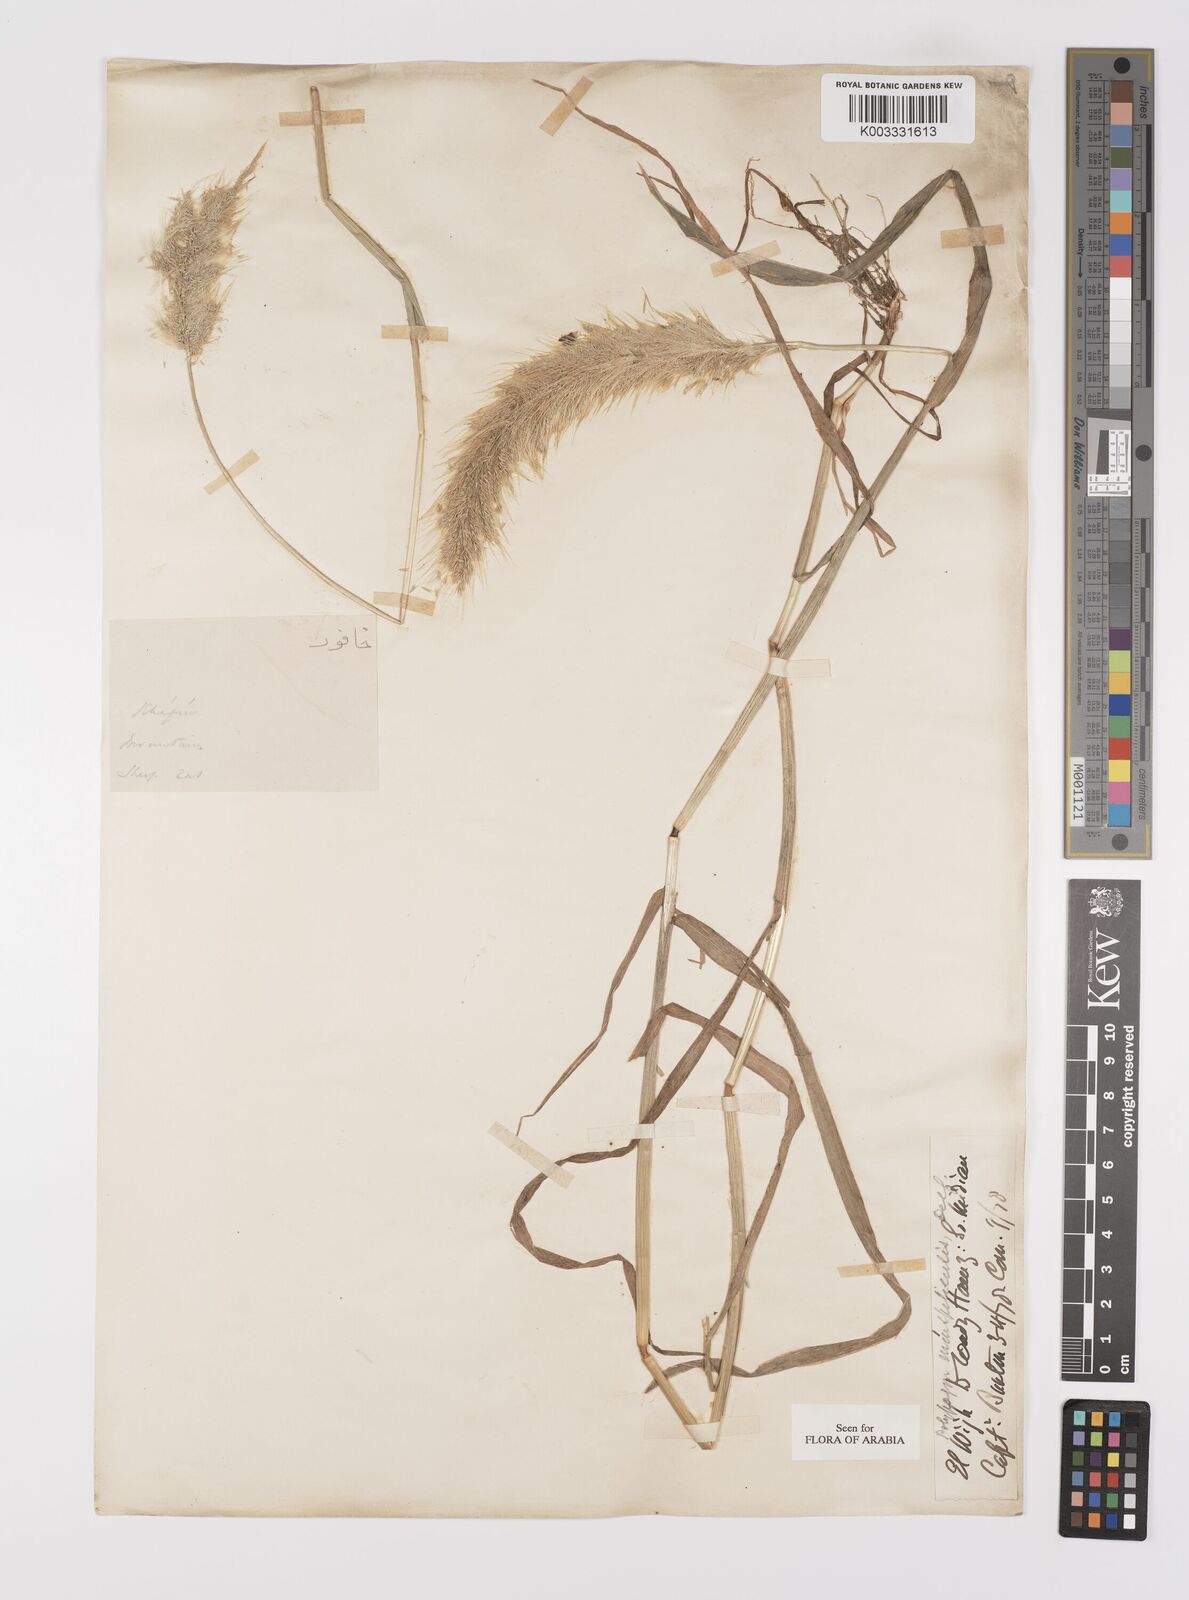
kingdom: Plantae
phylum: Tracheophyta
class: Liliopsida
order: Poales
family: Poaceae
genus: Polypogon
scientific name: Polypogon monspeliensis
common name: Annual rabbitsfoot grass
